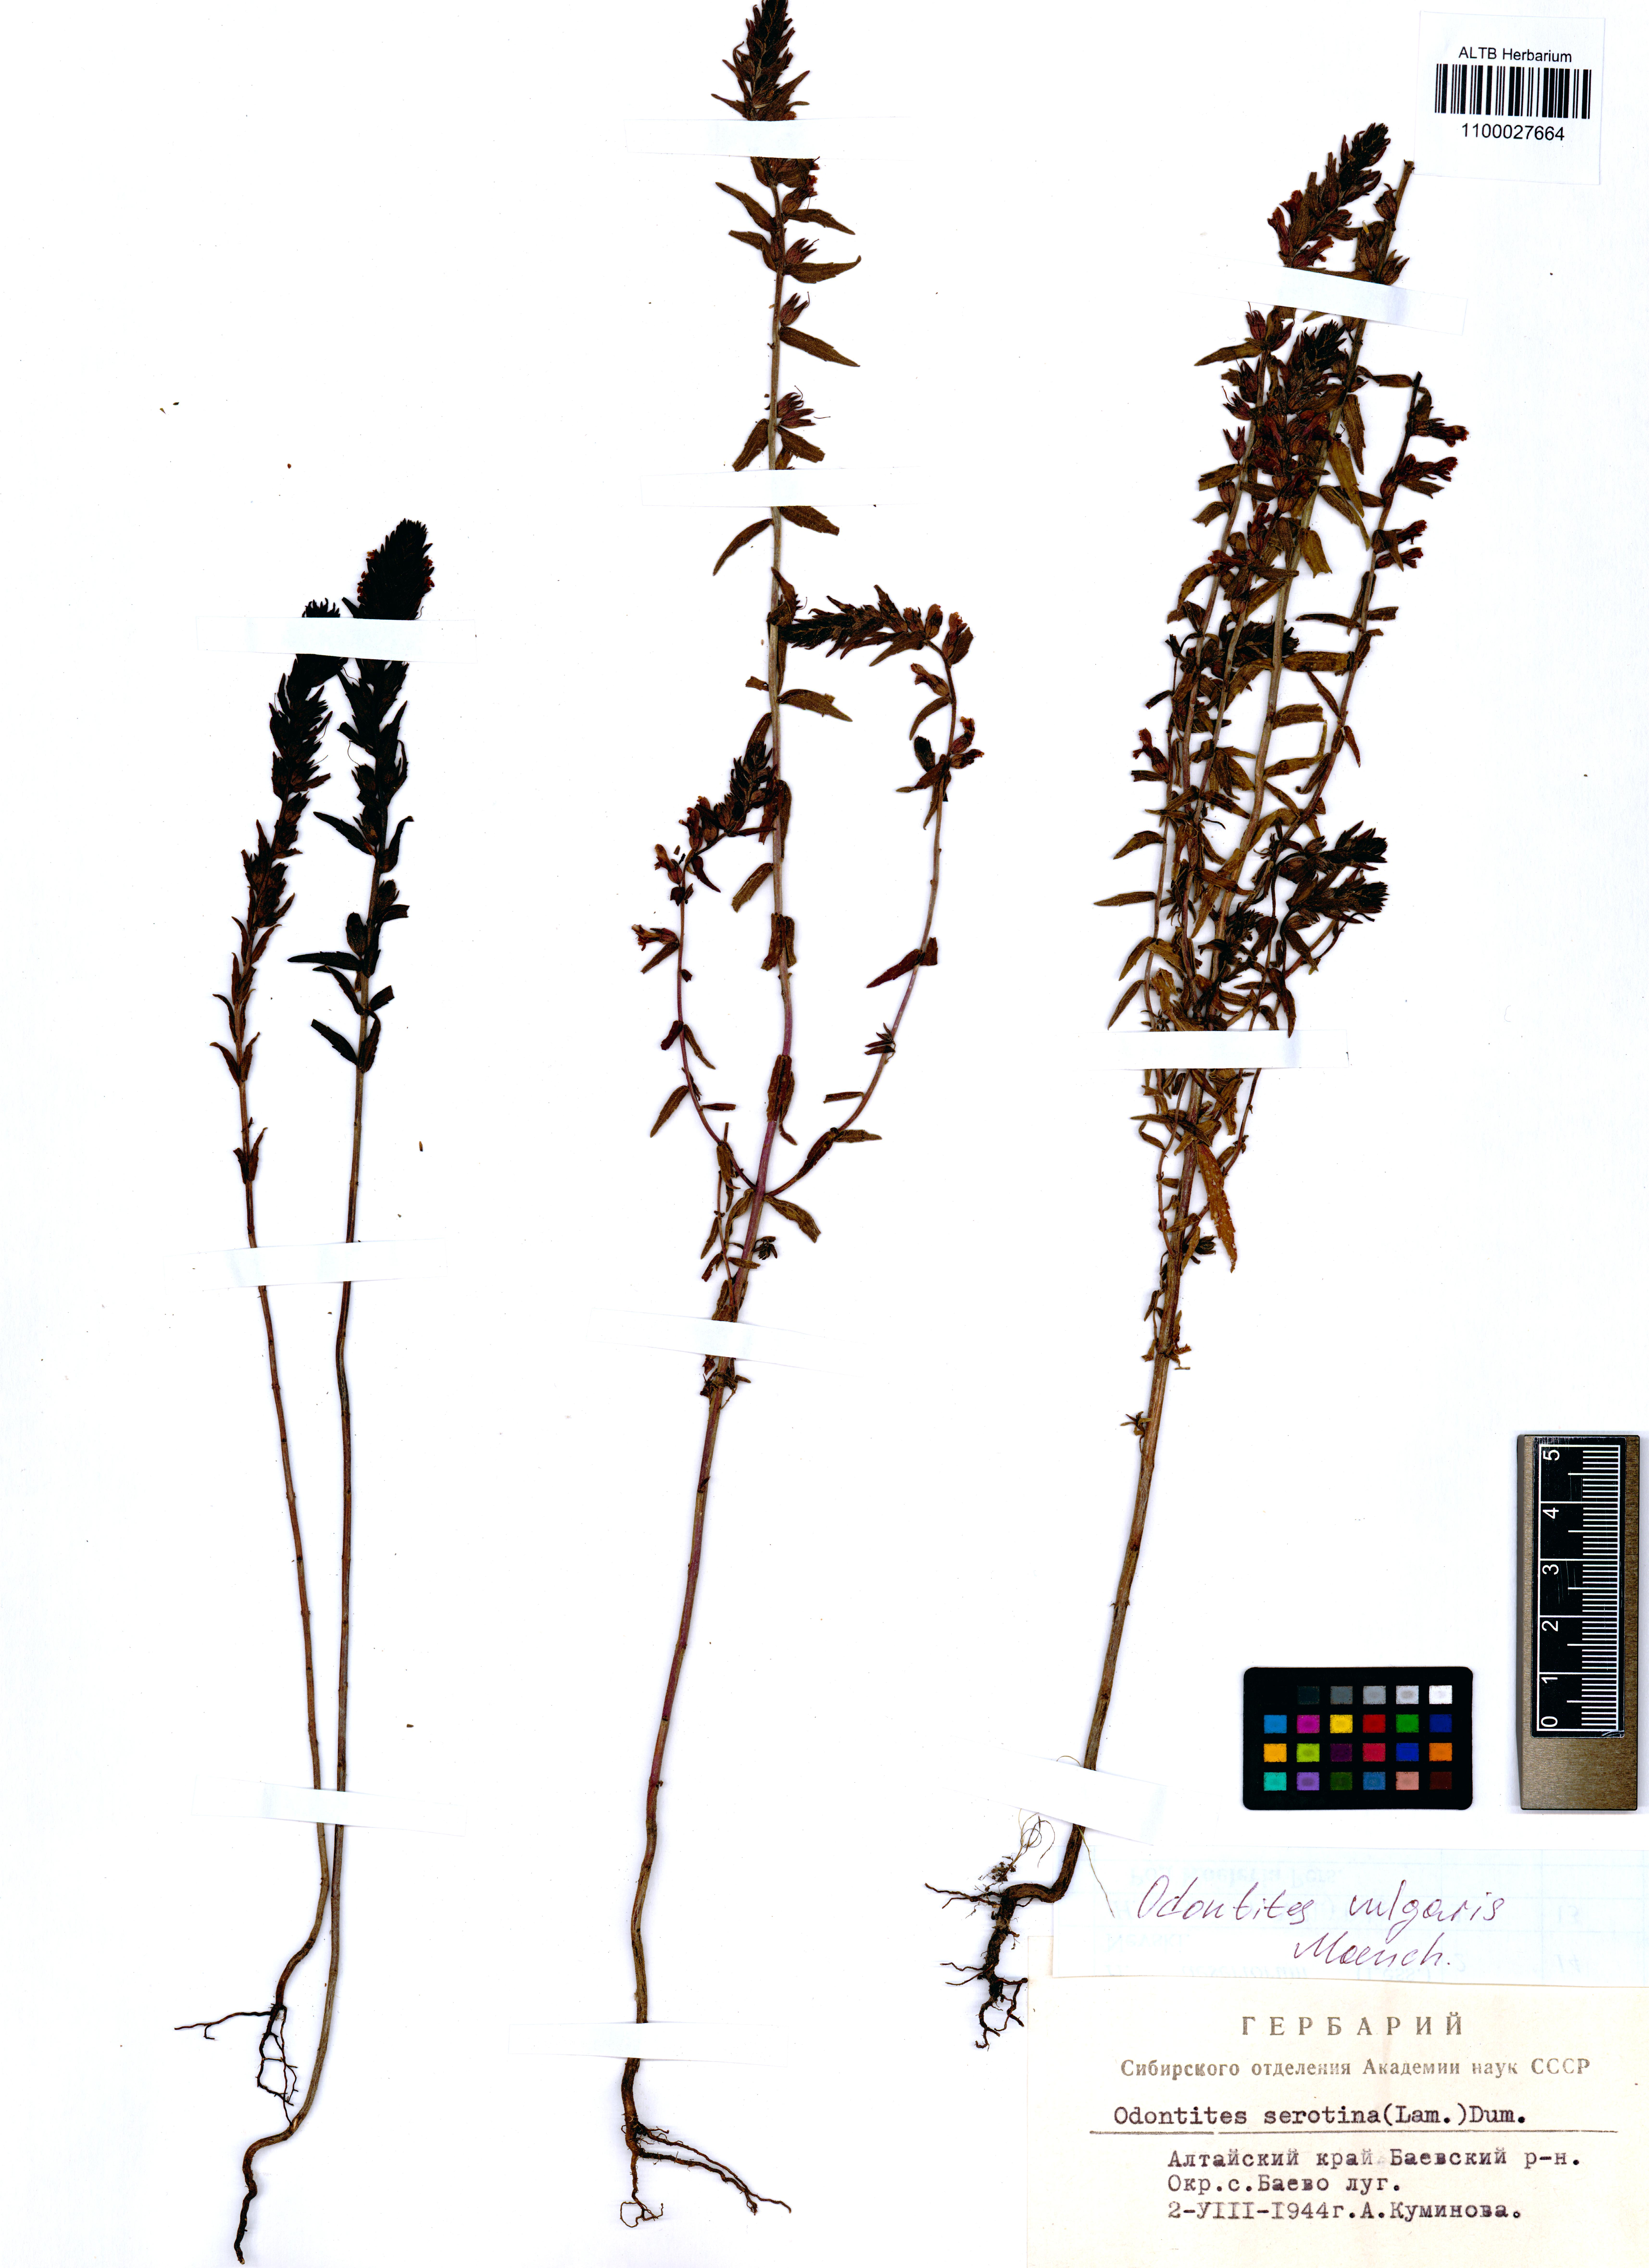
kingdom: Plantae
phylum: Tracheophyta
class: Magnoliopsida
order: Lamiales
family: Orobanchaceae
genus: Odontites
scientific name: Odontites vulgaris
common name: Broomrape
